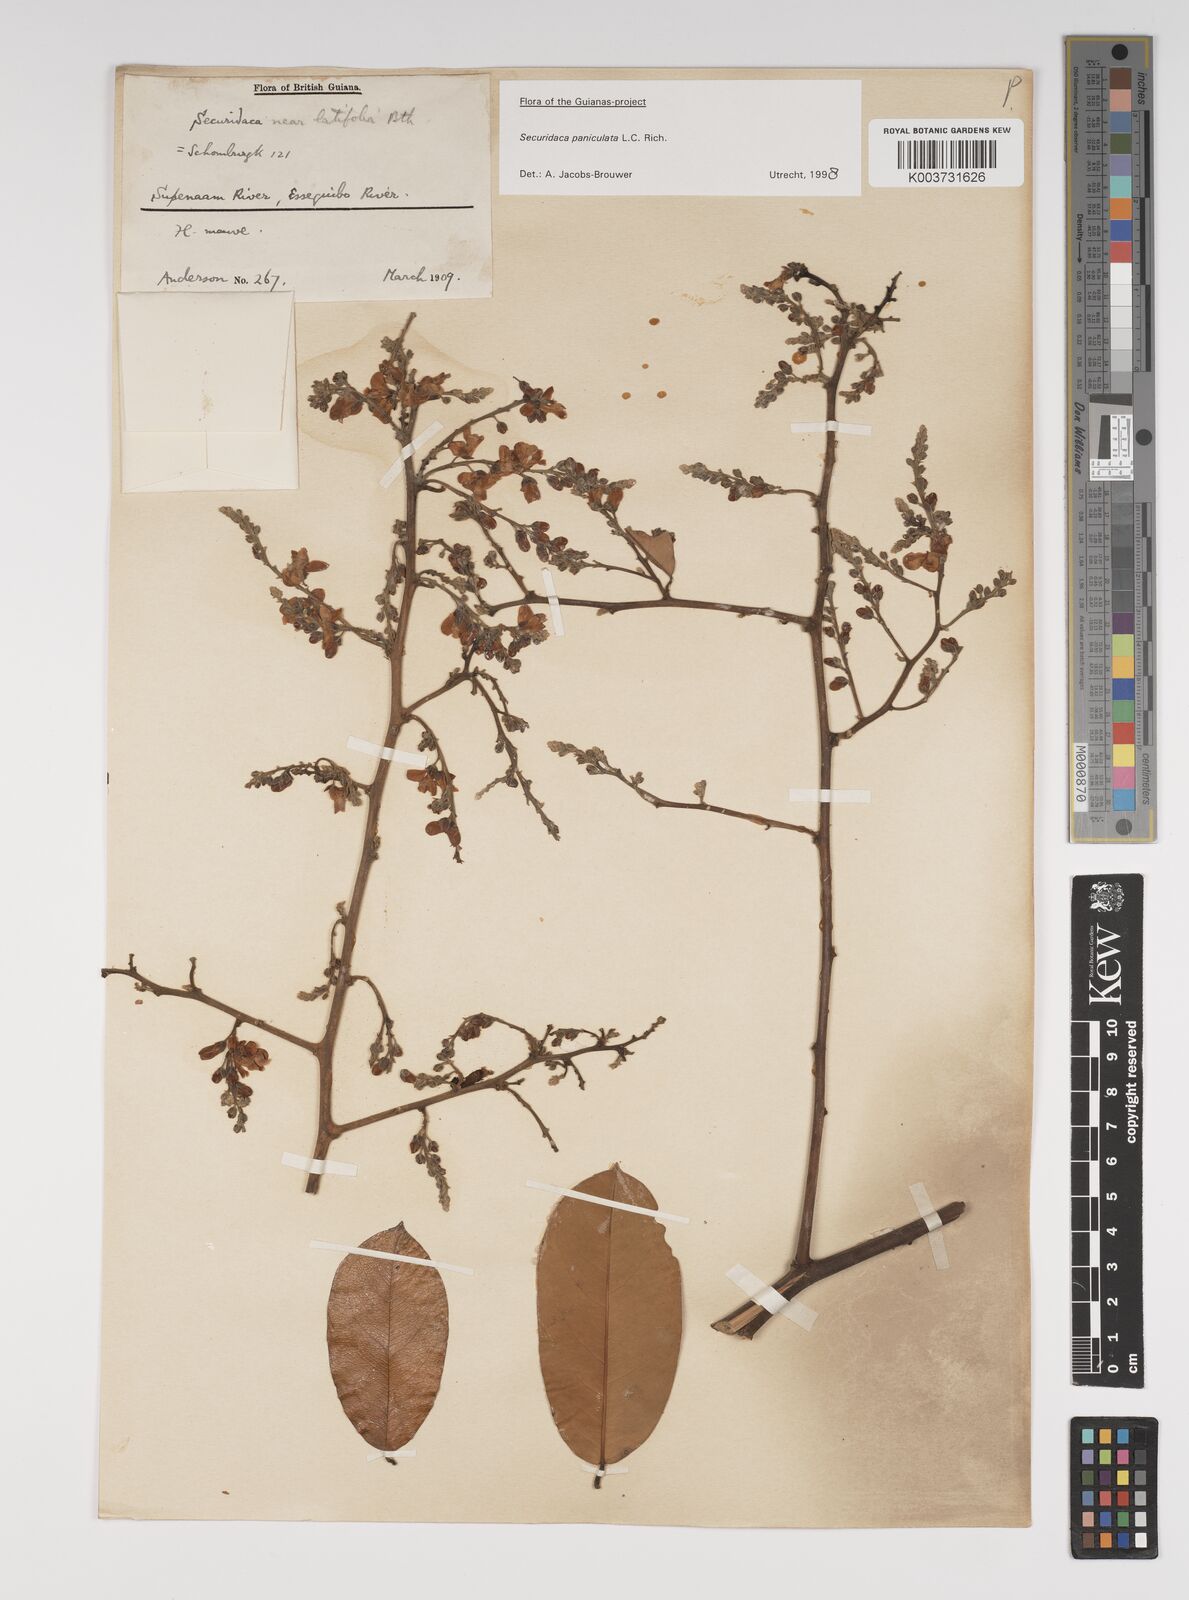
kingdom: Plantae
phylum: Tracheophyta
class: Magnoliopsida
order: Fabales
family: Polygalaceae
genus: Securidaca
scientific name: Securidaca paniculata
